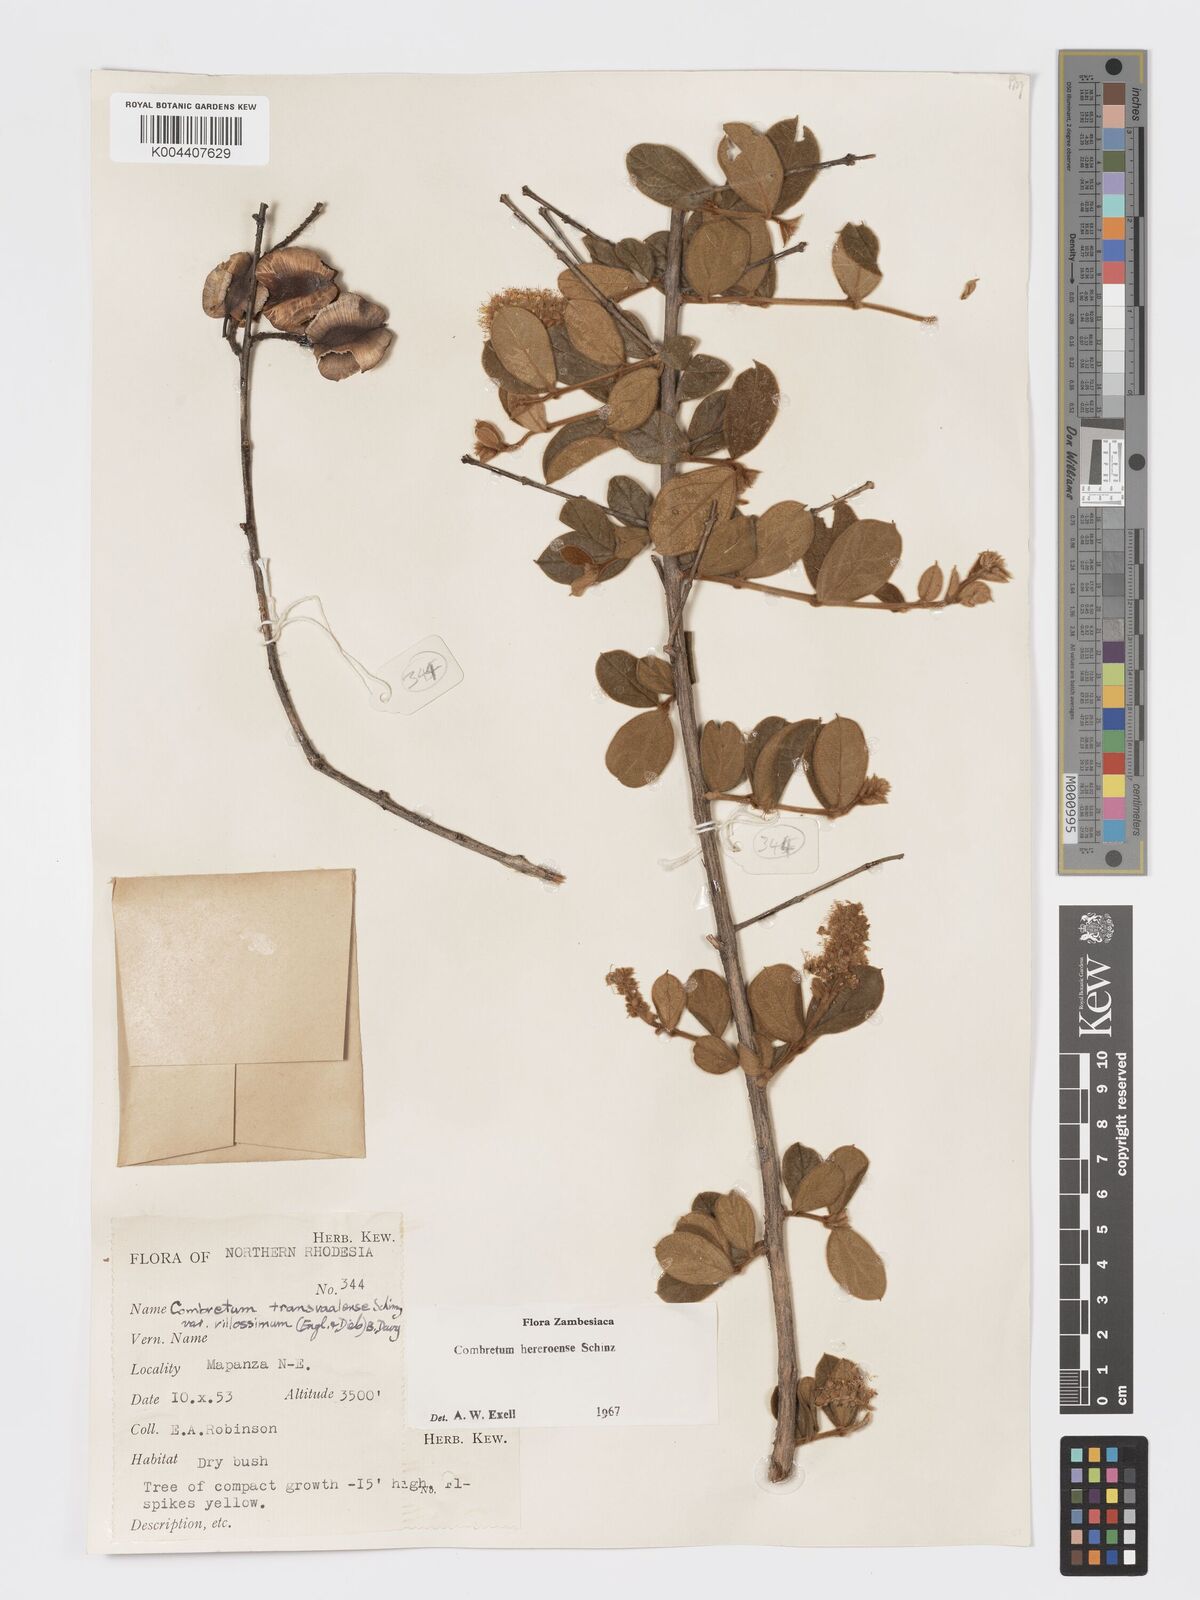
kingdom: Plantae
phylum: Tracheophyta
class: Magnoliopsida
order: Myrtales
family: Combretaceae
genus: Combretum
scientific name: Combretum hereroense
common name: Russet bushwillow
